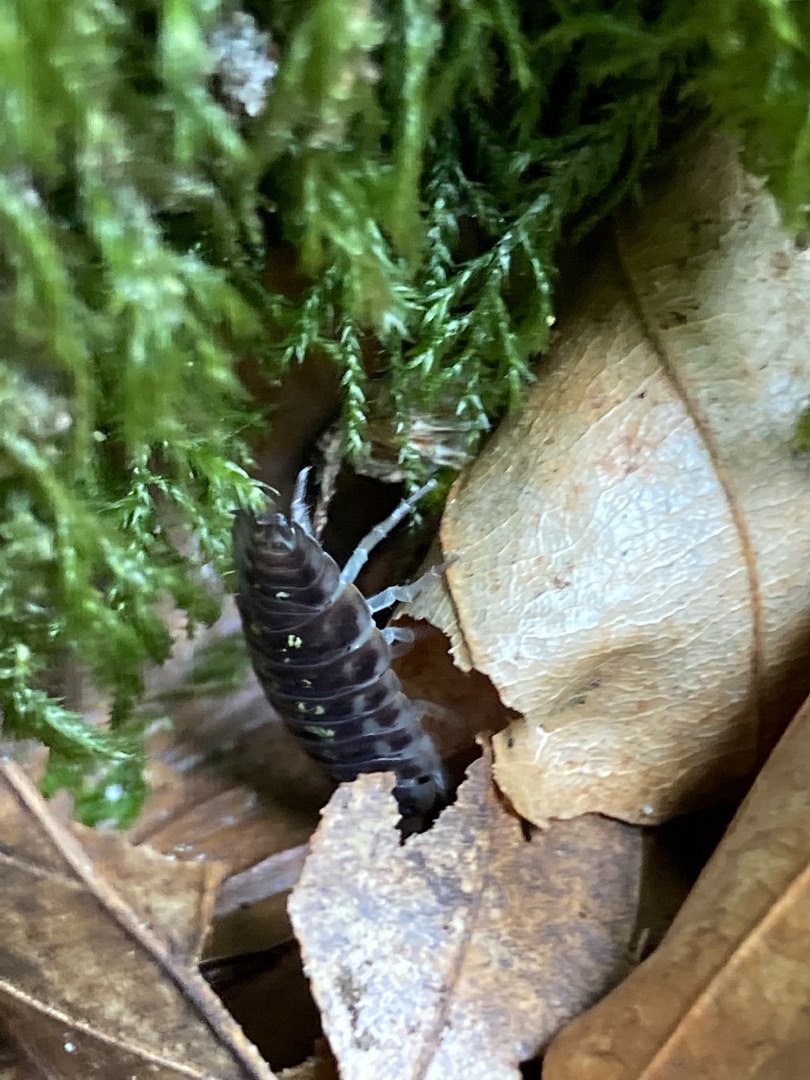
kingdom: Animalia
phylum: Arthropoda
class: Malacostraca
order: Isopoda
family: Oniscidae
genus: Oniscus
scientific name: Oniscus asellus
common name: Glat bænkebider
